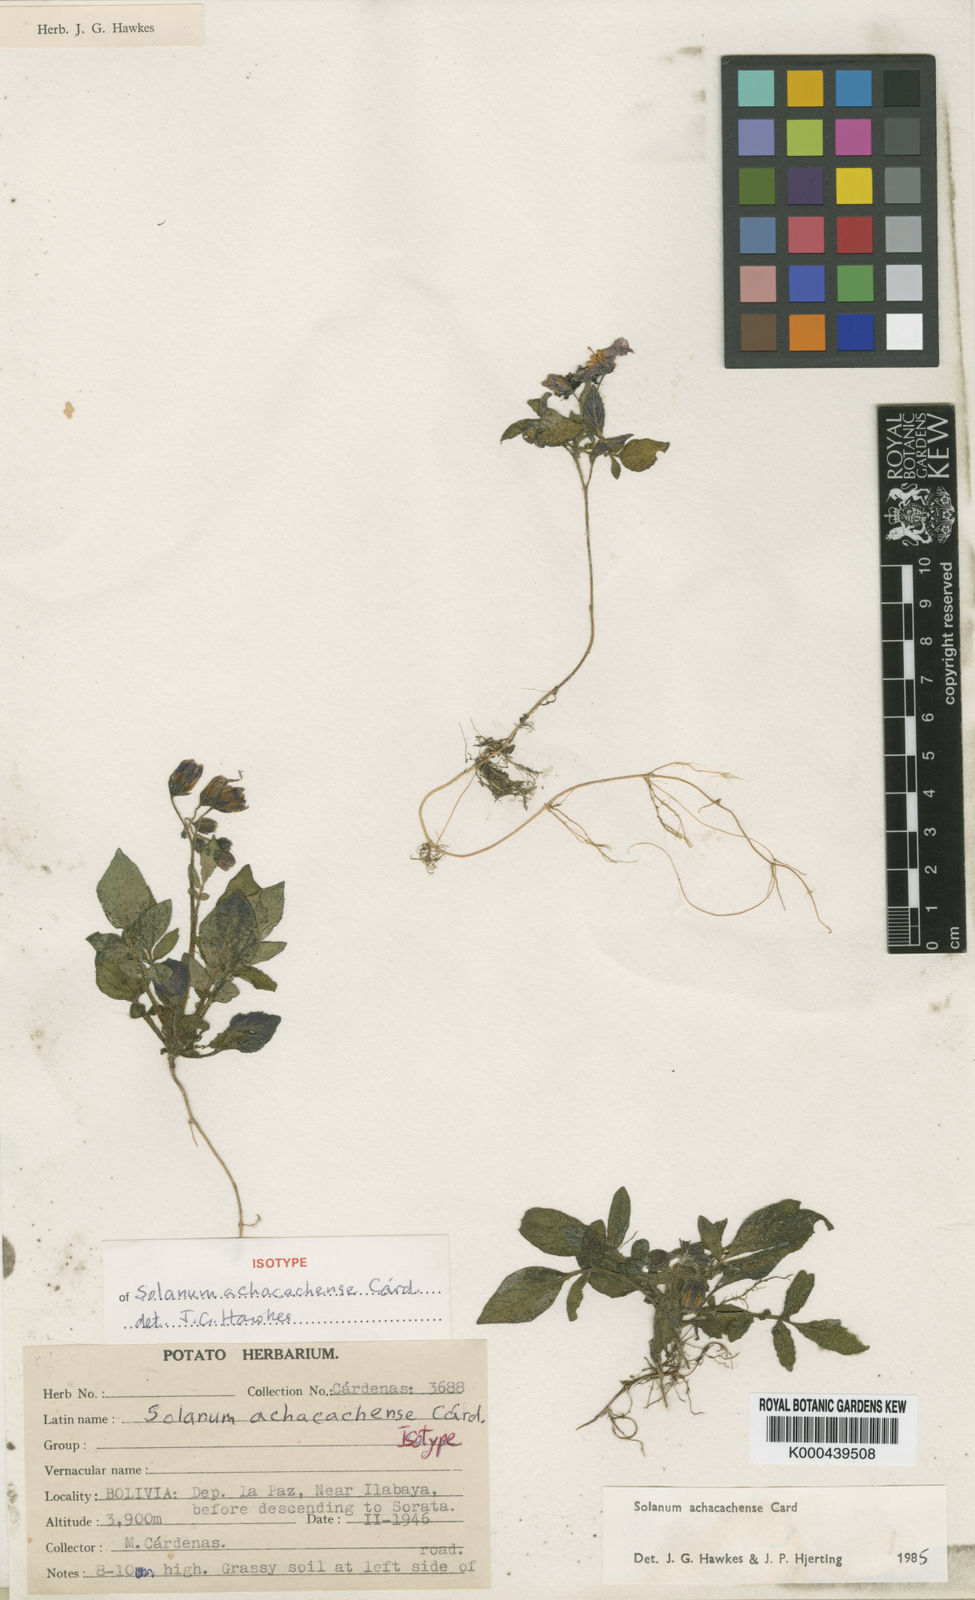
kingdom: Plantae
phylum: Tracheophyta
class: Magnoliopsida
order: Solanales
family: Solanaceae
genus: Solanum
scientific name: Solanum
